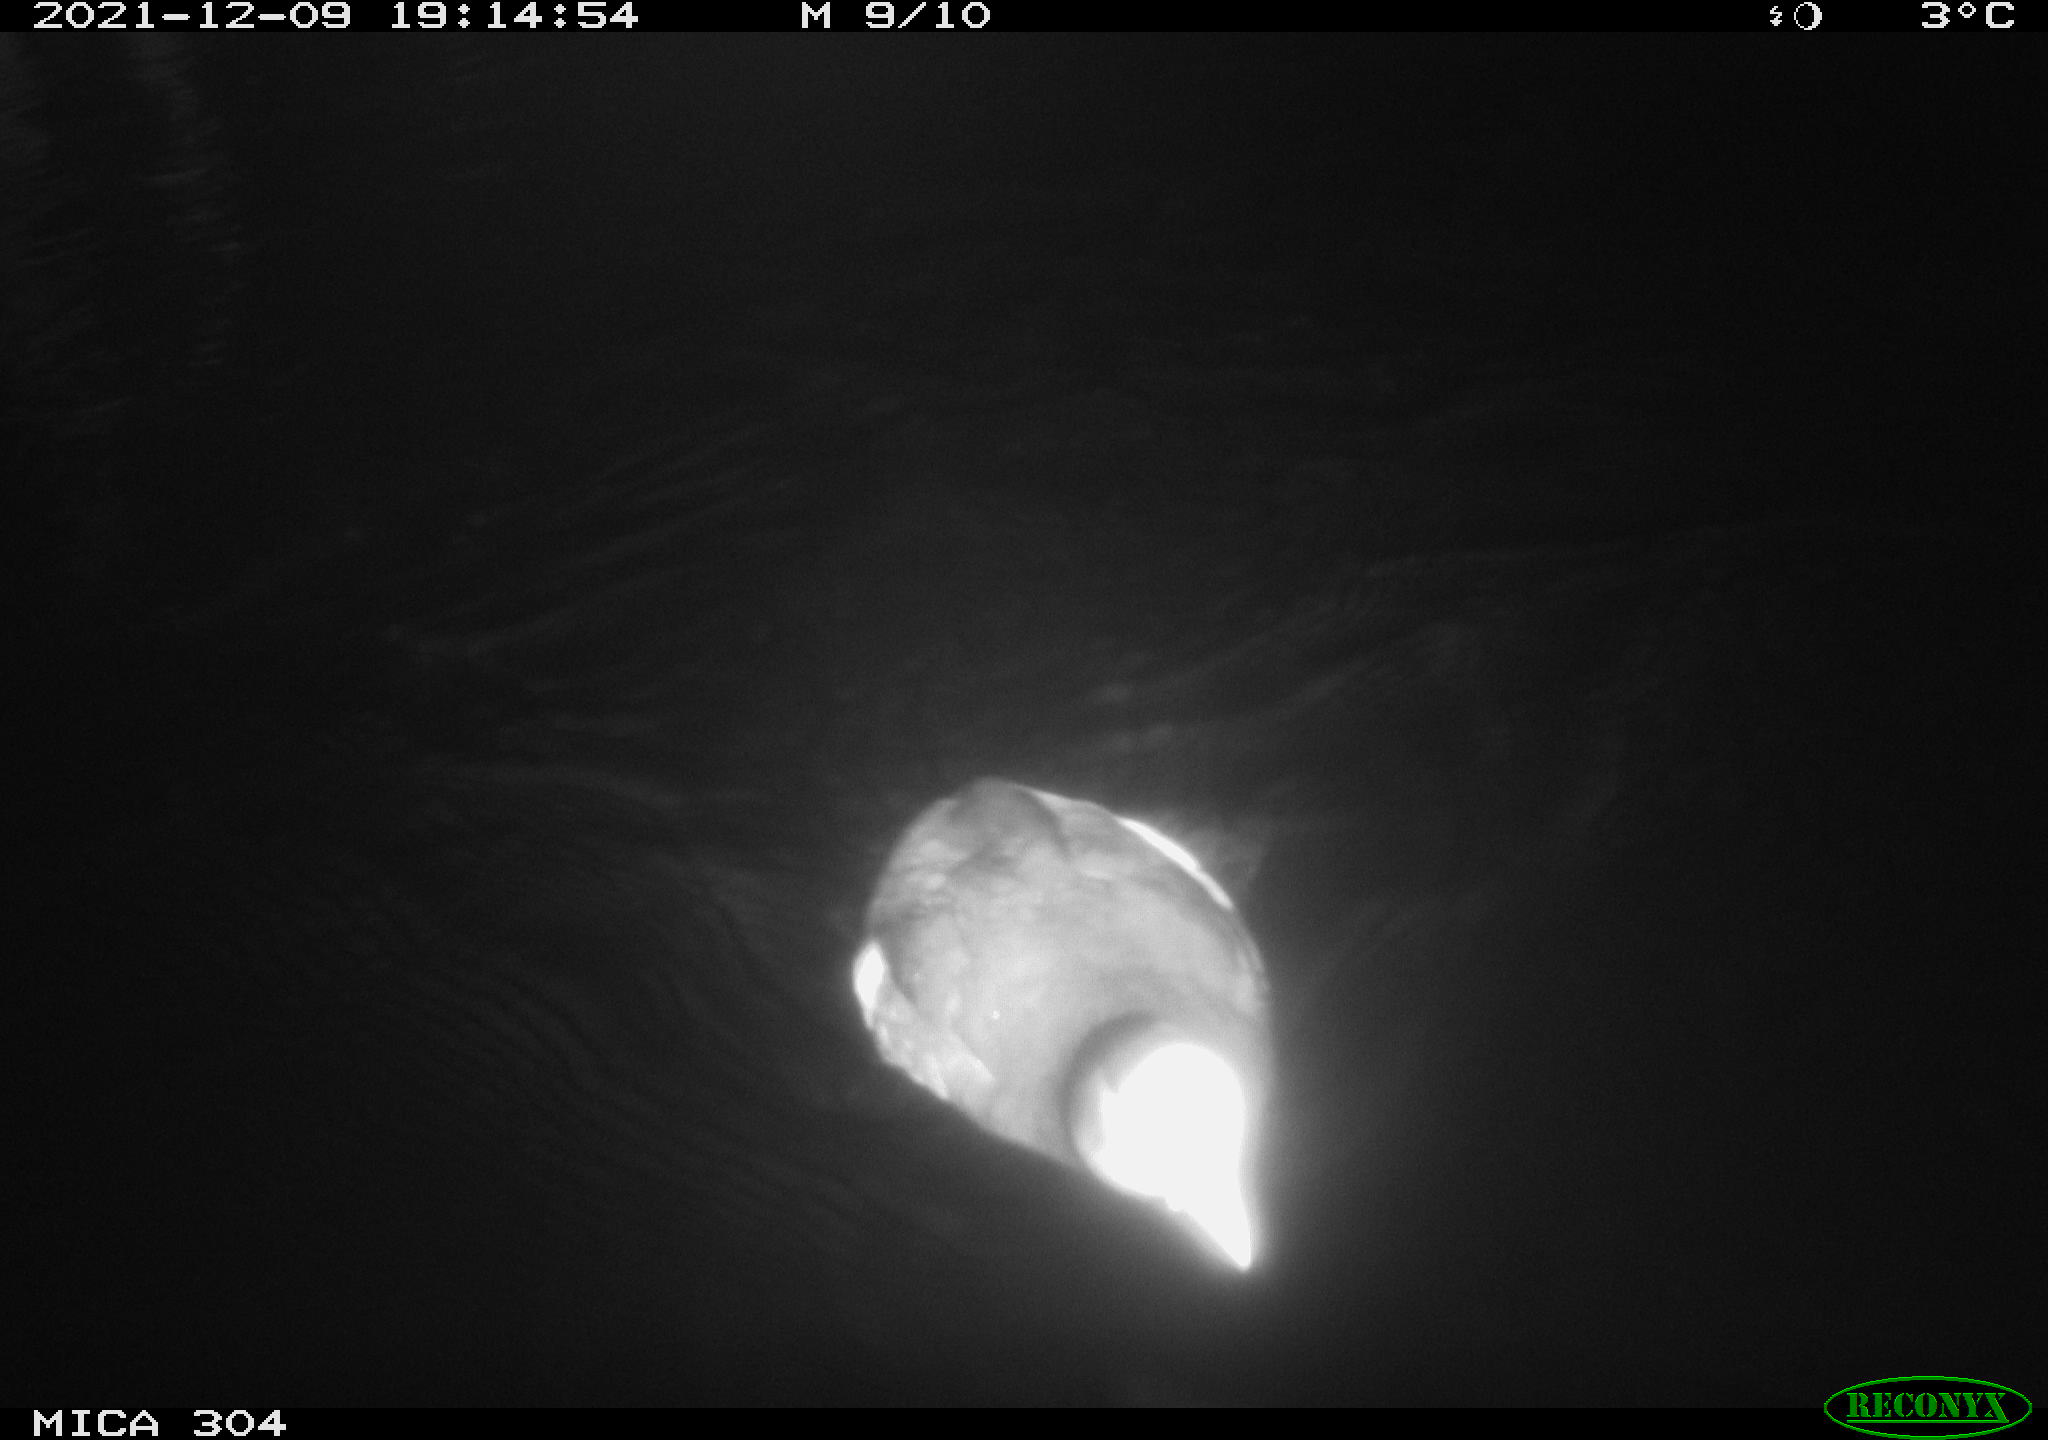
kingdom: Animalia
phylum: Chordata
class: Aves
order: Gruiformes
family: Rallidae
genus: Fulica
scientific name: Fulica atra
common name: Eurasian coot
